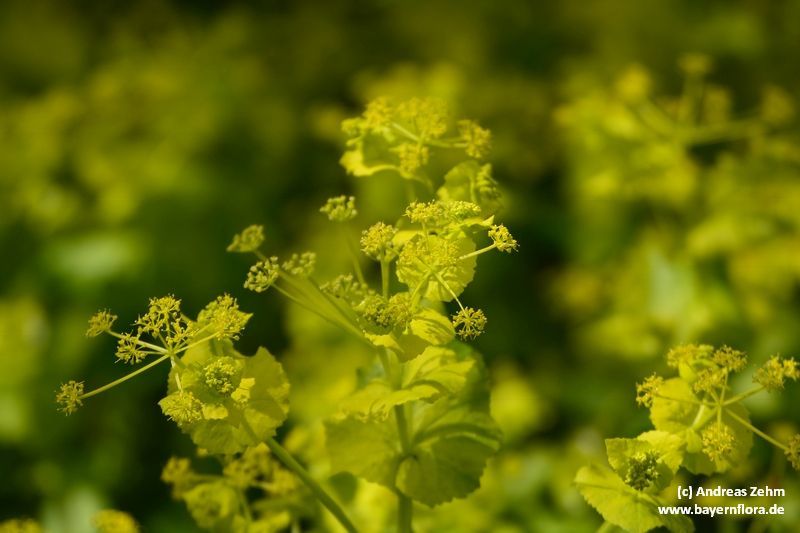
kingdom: Plantae
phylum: Tracheophyta
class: Magnoliopsida
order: Apiales
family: Apiaceae
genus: Smyrnium
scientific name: Smyrnium perfoliatum
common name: Perfoliate alexanders
